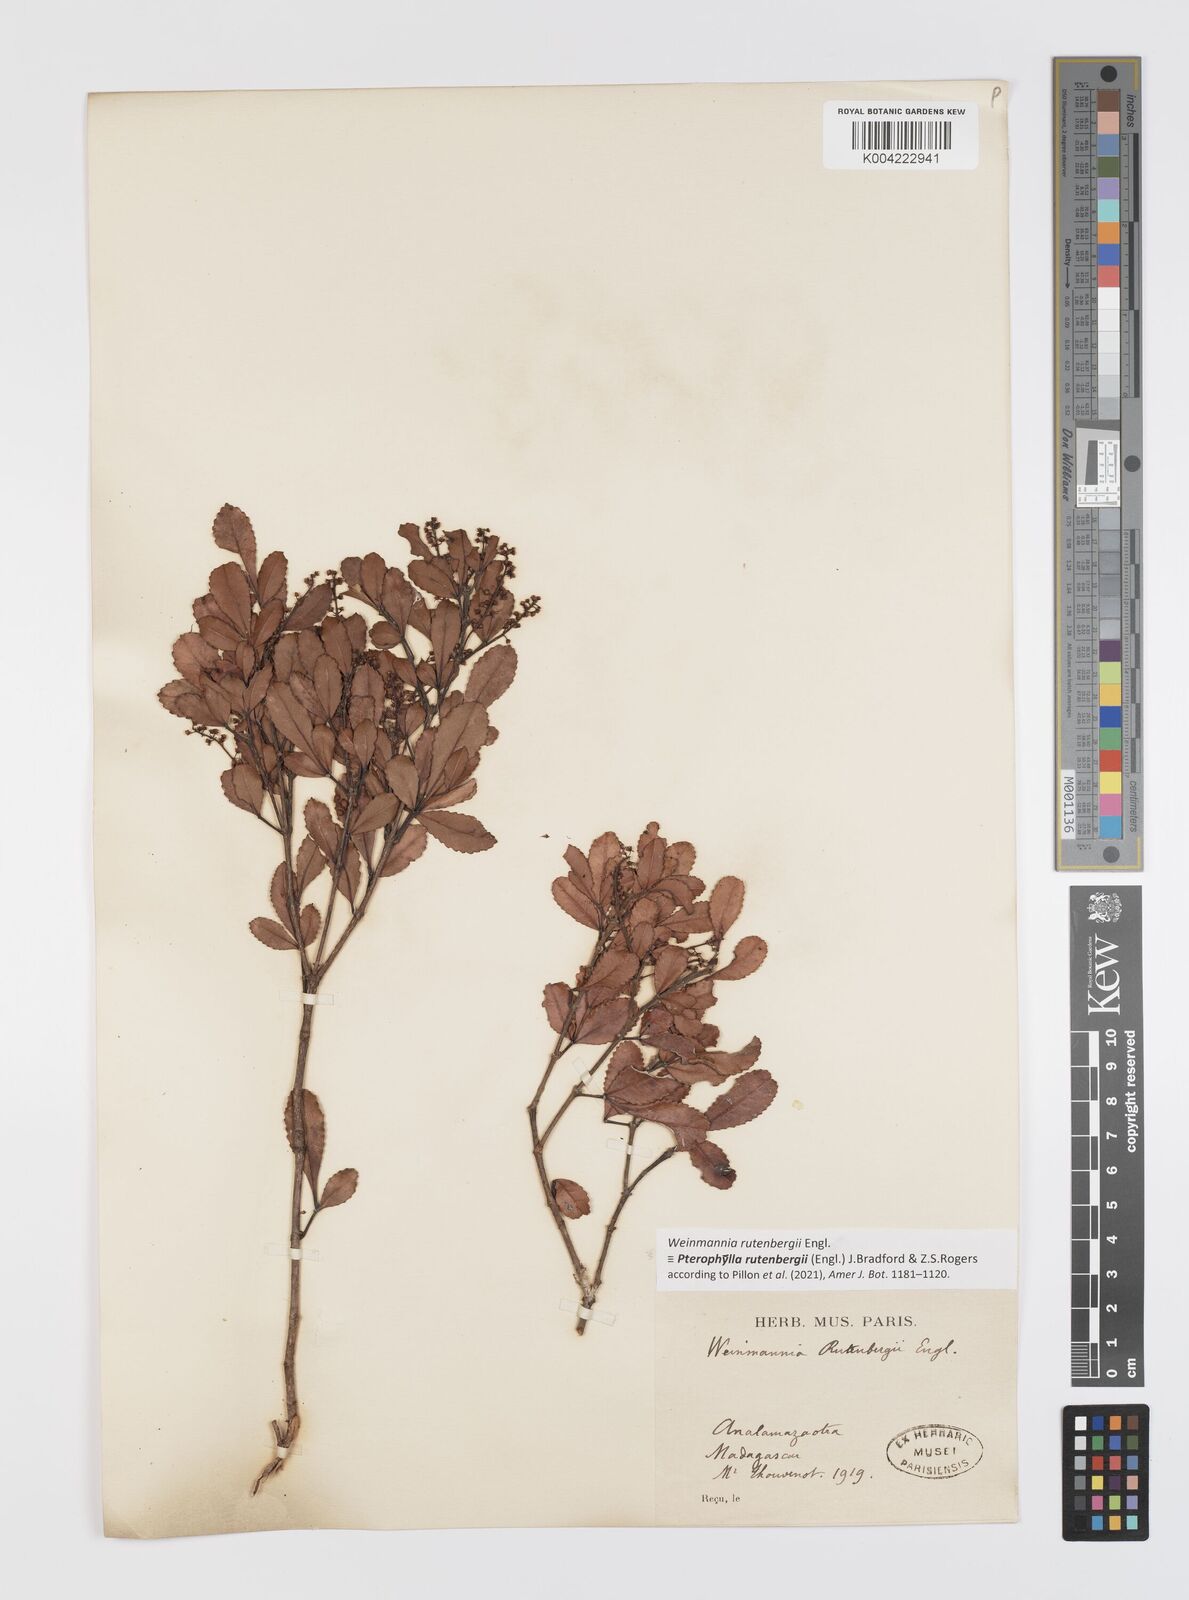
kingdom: Plantae
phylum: Tracheophyta
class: Magnoliopsida
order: Oxalidales
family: Cunoniaceae
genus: Pterophylla
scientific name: Pterophylla rutenbergii
